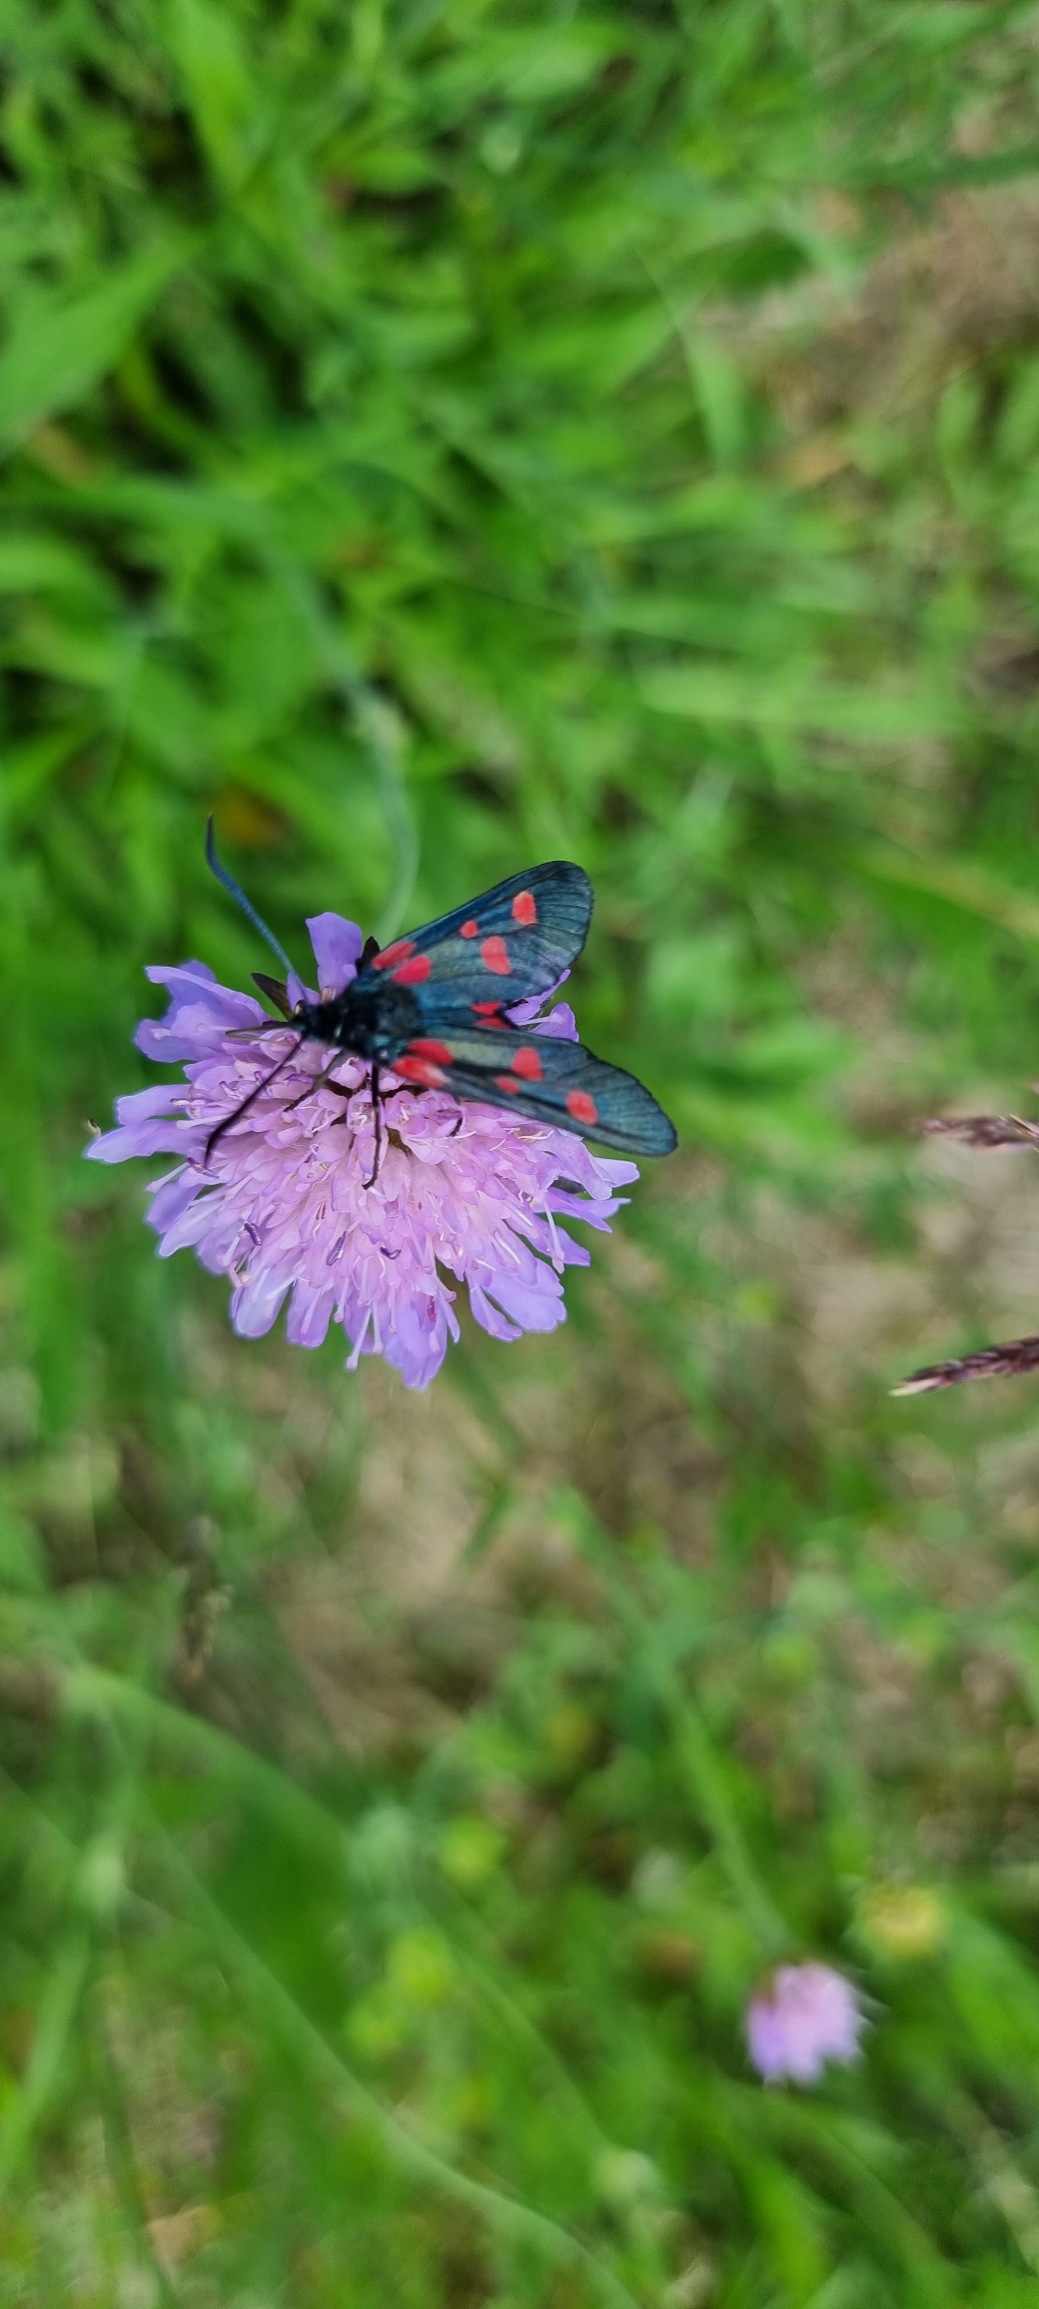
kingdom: Animalia
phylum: Arthropoda
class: Insecta
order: Lepidoptera
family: Zygaenidae
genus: Zygaena
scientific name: Zygaena lonicerae
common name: Femplettet køllesværmer
